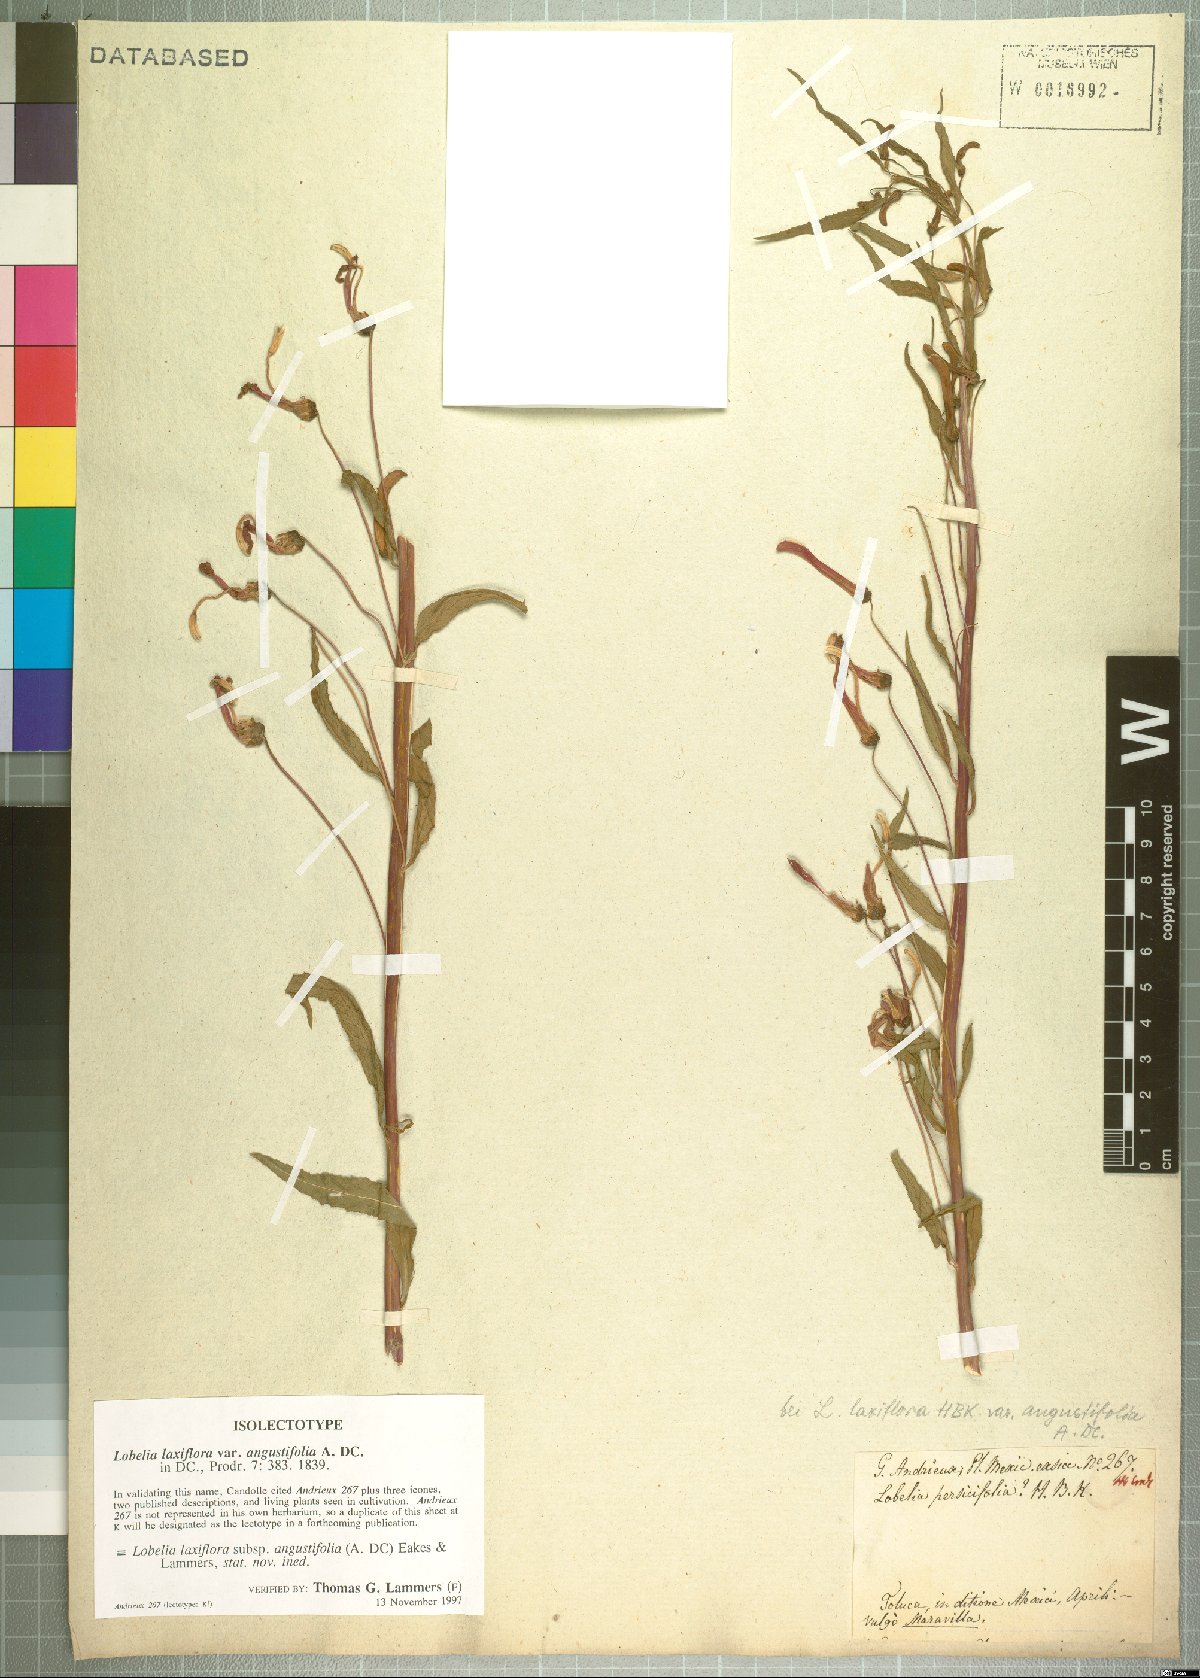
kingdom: Plantae
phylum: Tracheophyta
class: Magnoliopsida
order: Asterales
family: Campanulaceae
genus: Lobelia
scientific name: Lobelia laxiflora
